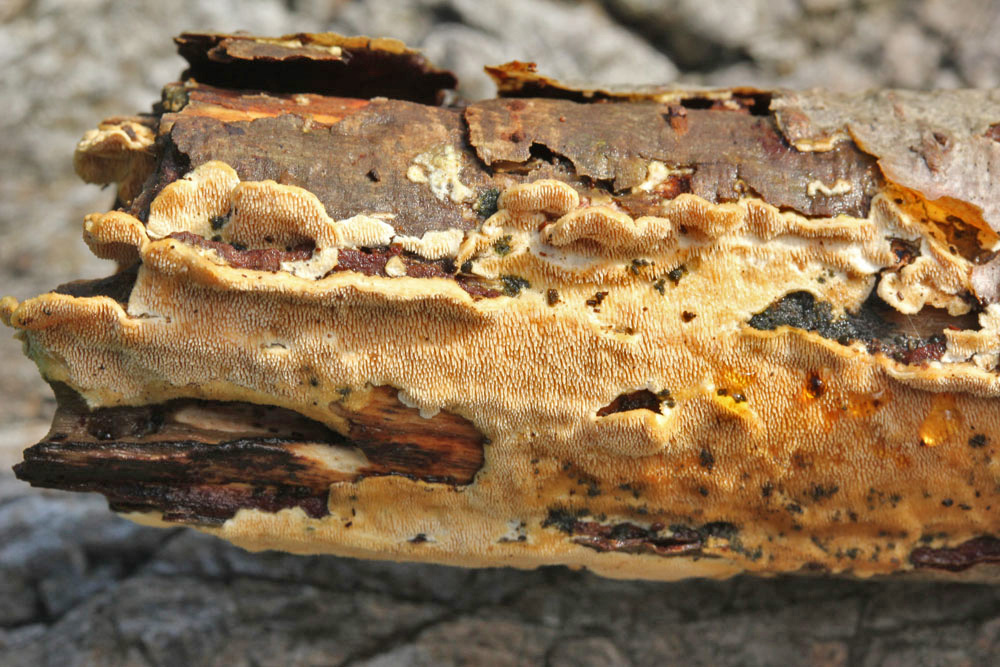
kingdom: Fungi
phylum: Basidiomycota
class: Agaricomycetes
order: Polyporales
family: Steccherinaceae
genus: Steccherinum
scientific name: Steccherinum ochraceum
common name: almindelig skønpig
